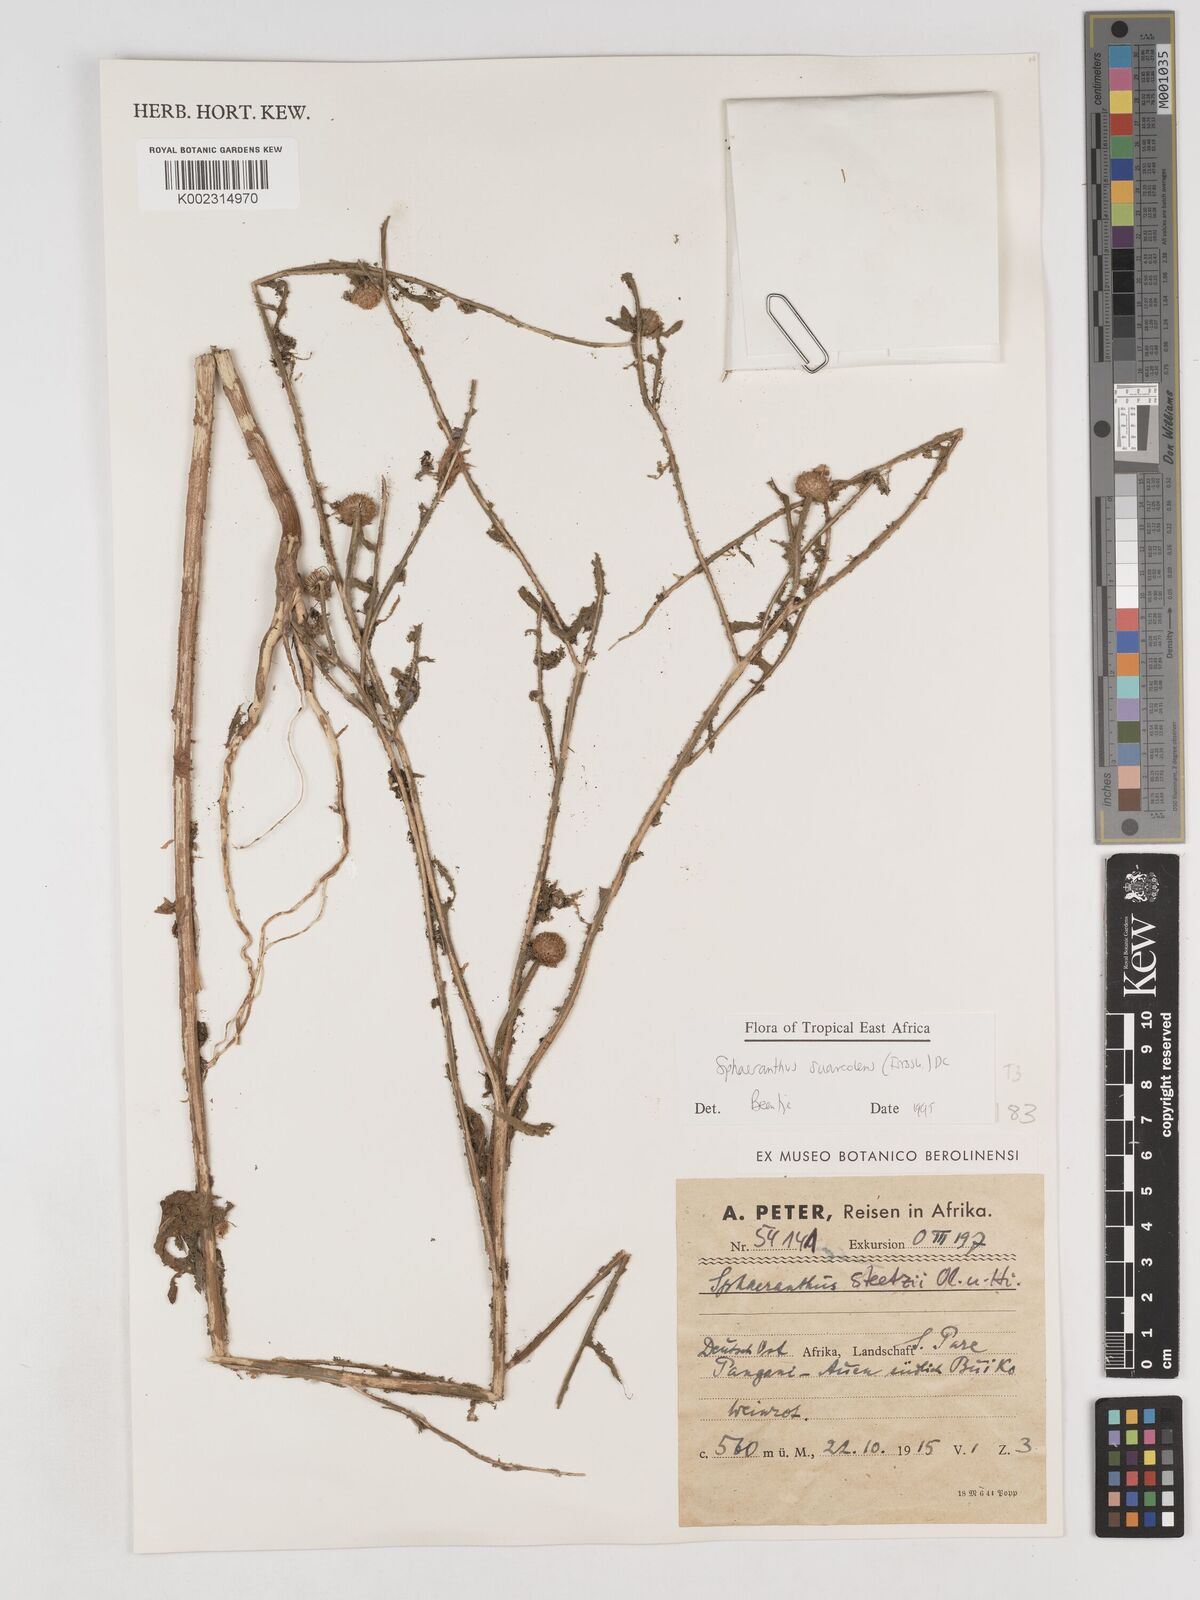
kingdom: Plantae
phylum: Tracheophyta
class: Magnoliopsida
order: Asterales
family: Asteraceae
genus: Sphaeranthus
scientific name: Sphaeranthus suaveolens
